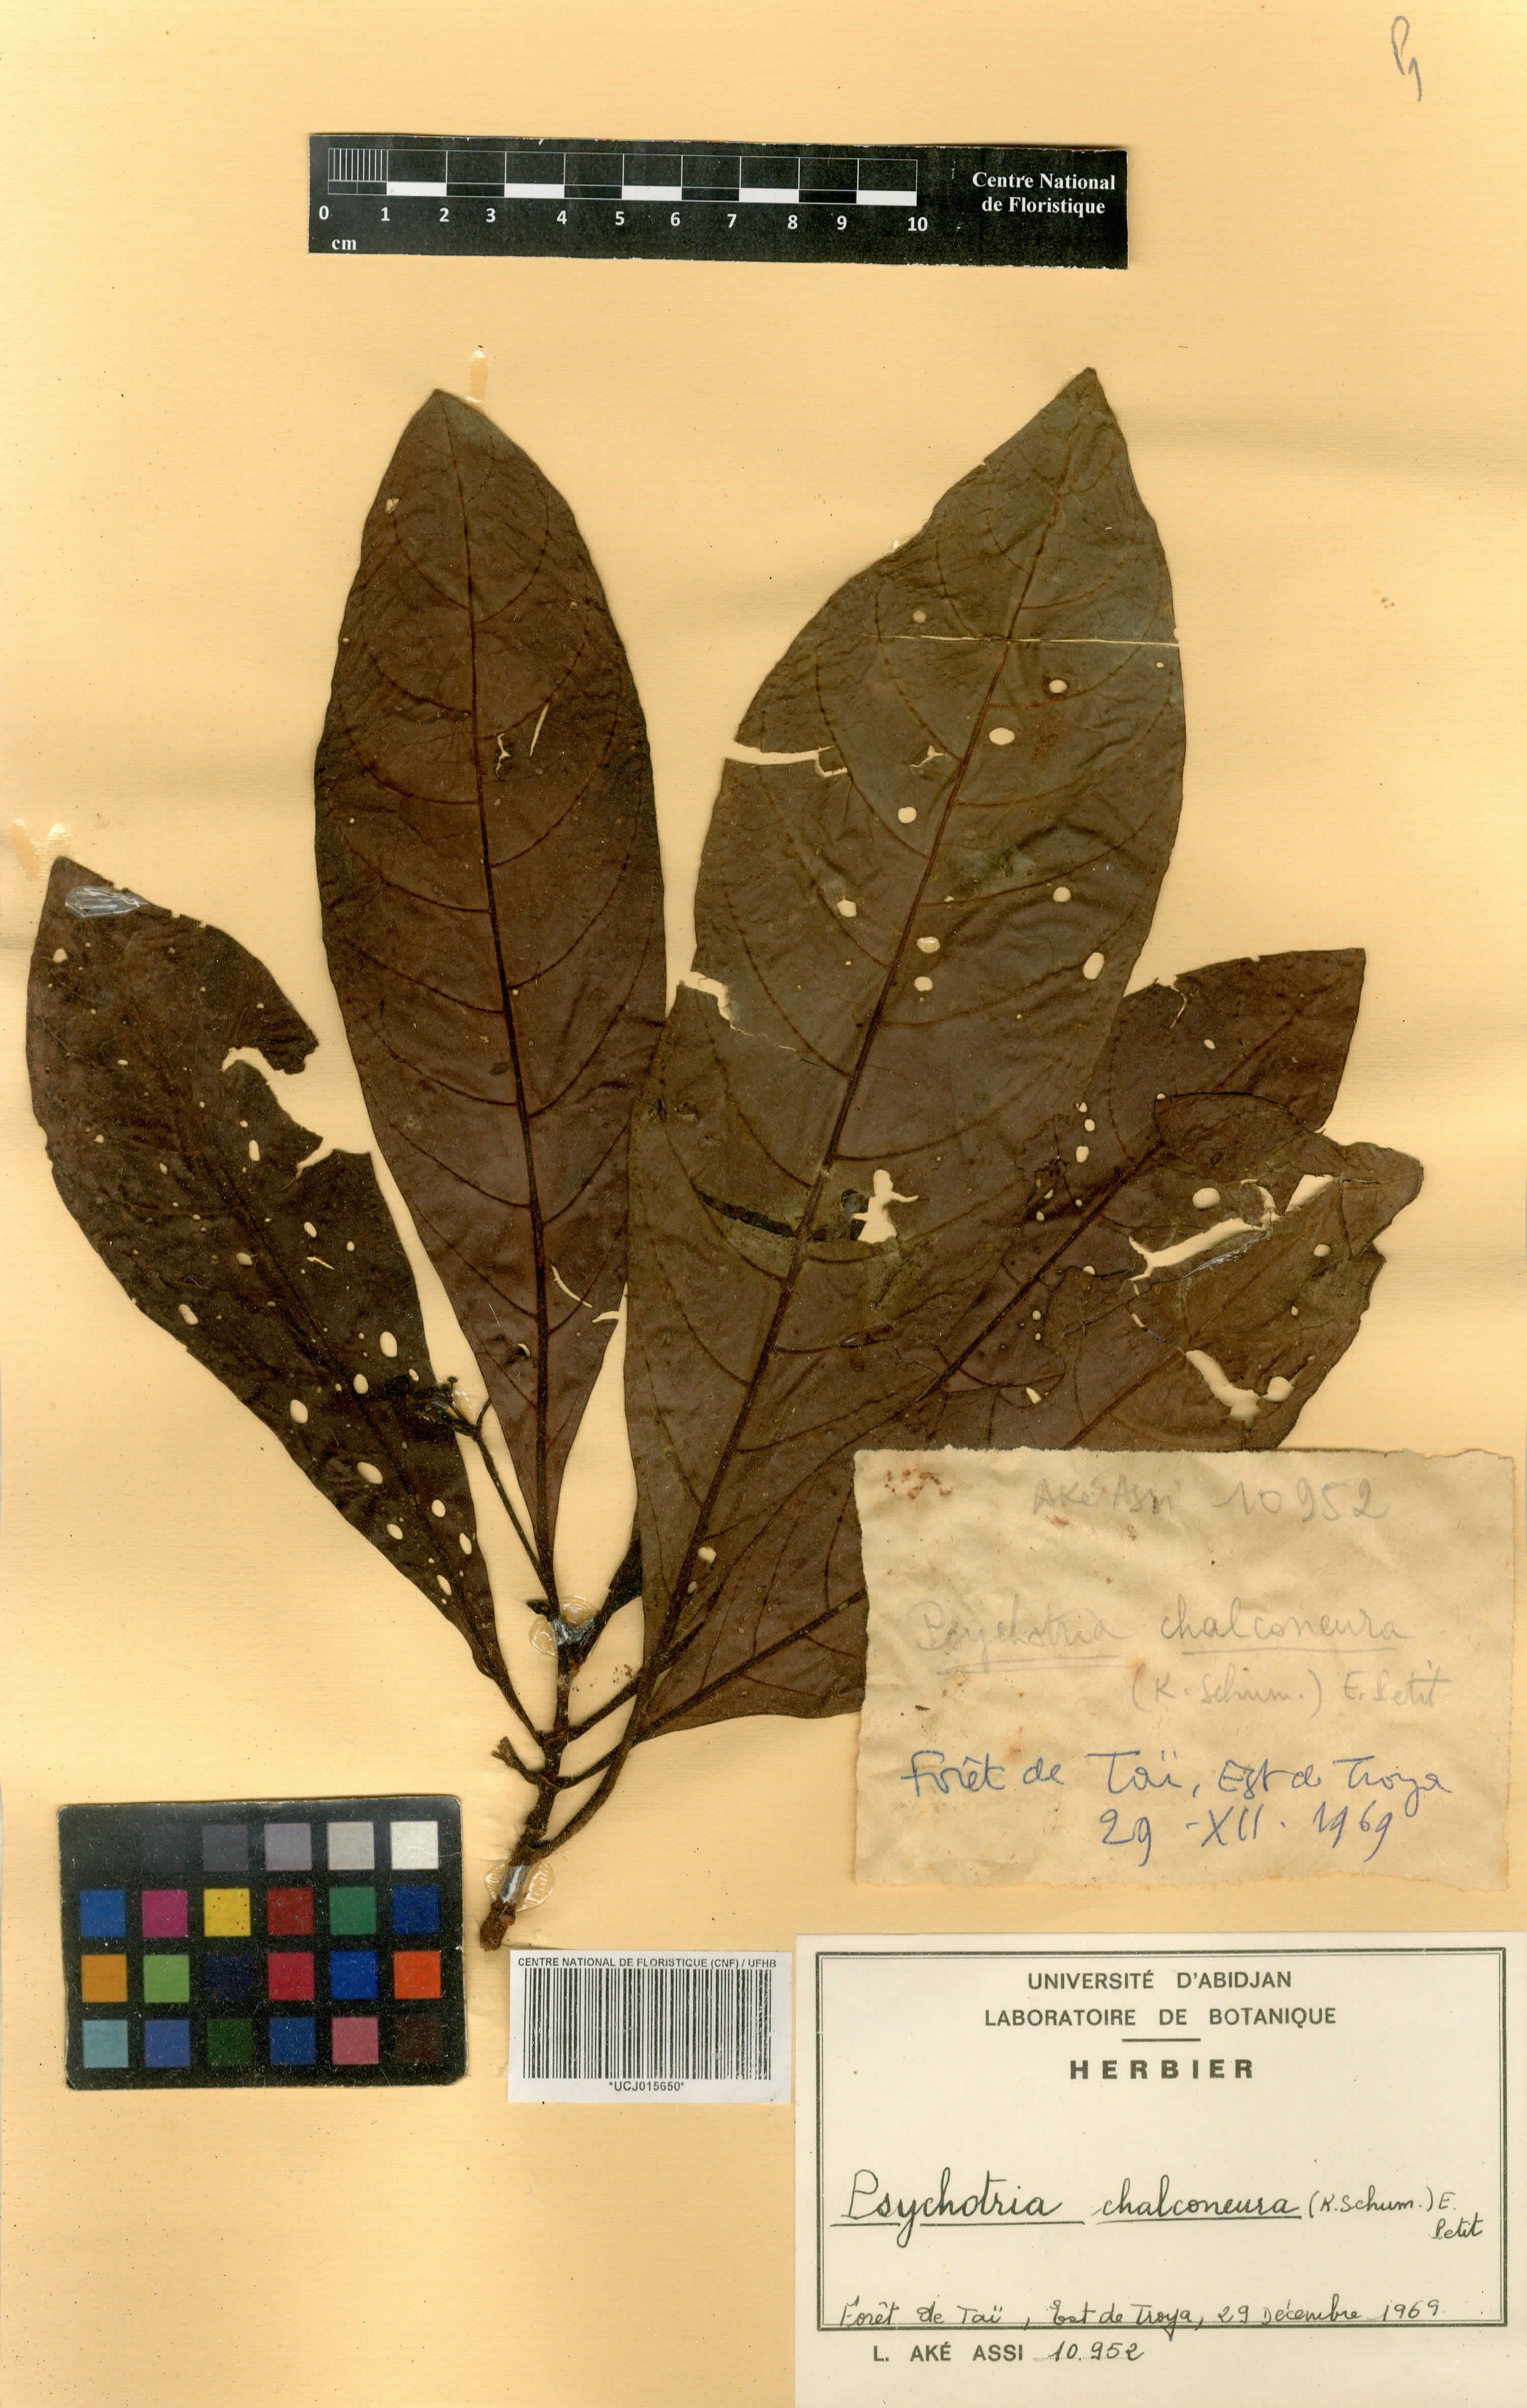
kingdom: Plantae
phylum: Tracheophyta
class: Magnoliopsida
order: Gentianales
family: Rubiaceae
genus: Psychotria
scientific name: Psychotria chalconeura
